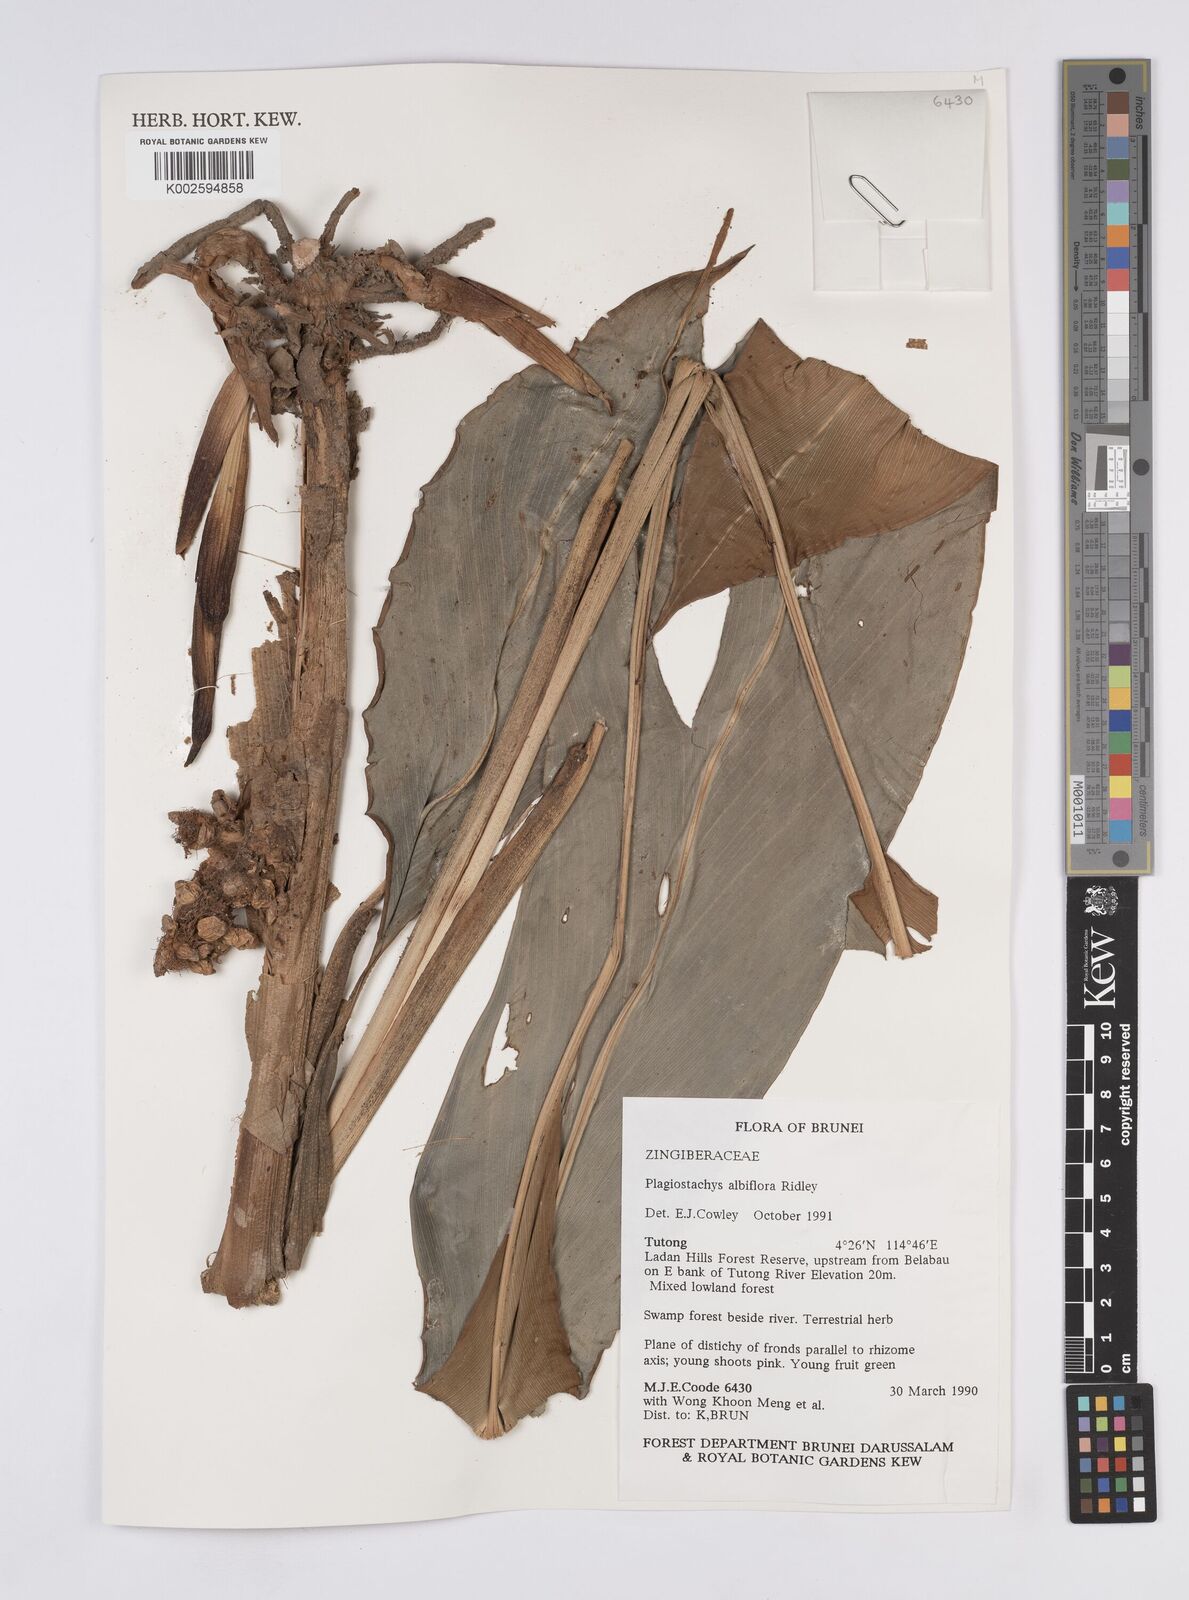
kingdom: Plantae
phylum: Tracheophyta
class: Liliopsida
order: Zingiberales
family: Zingiberaceae
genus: Plagiostachys
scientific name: Plagiostachys albiflora
